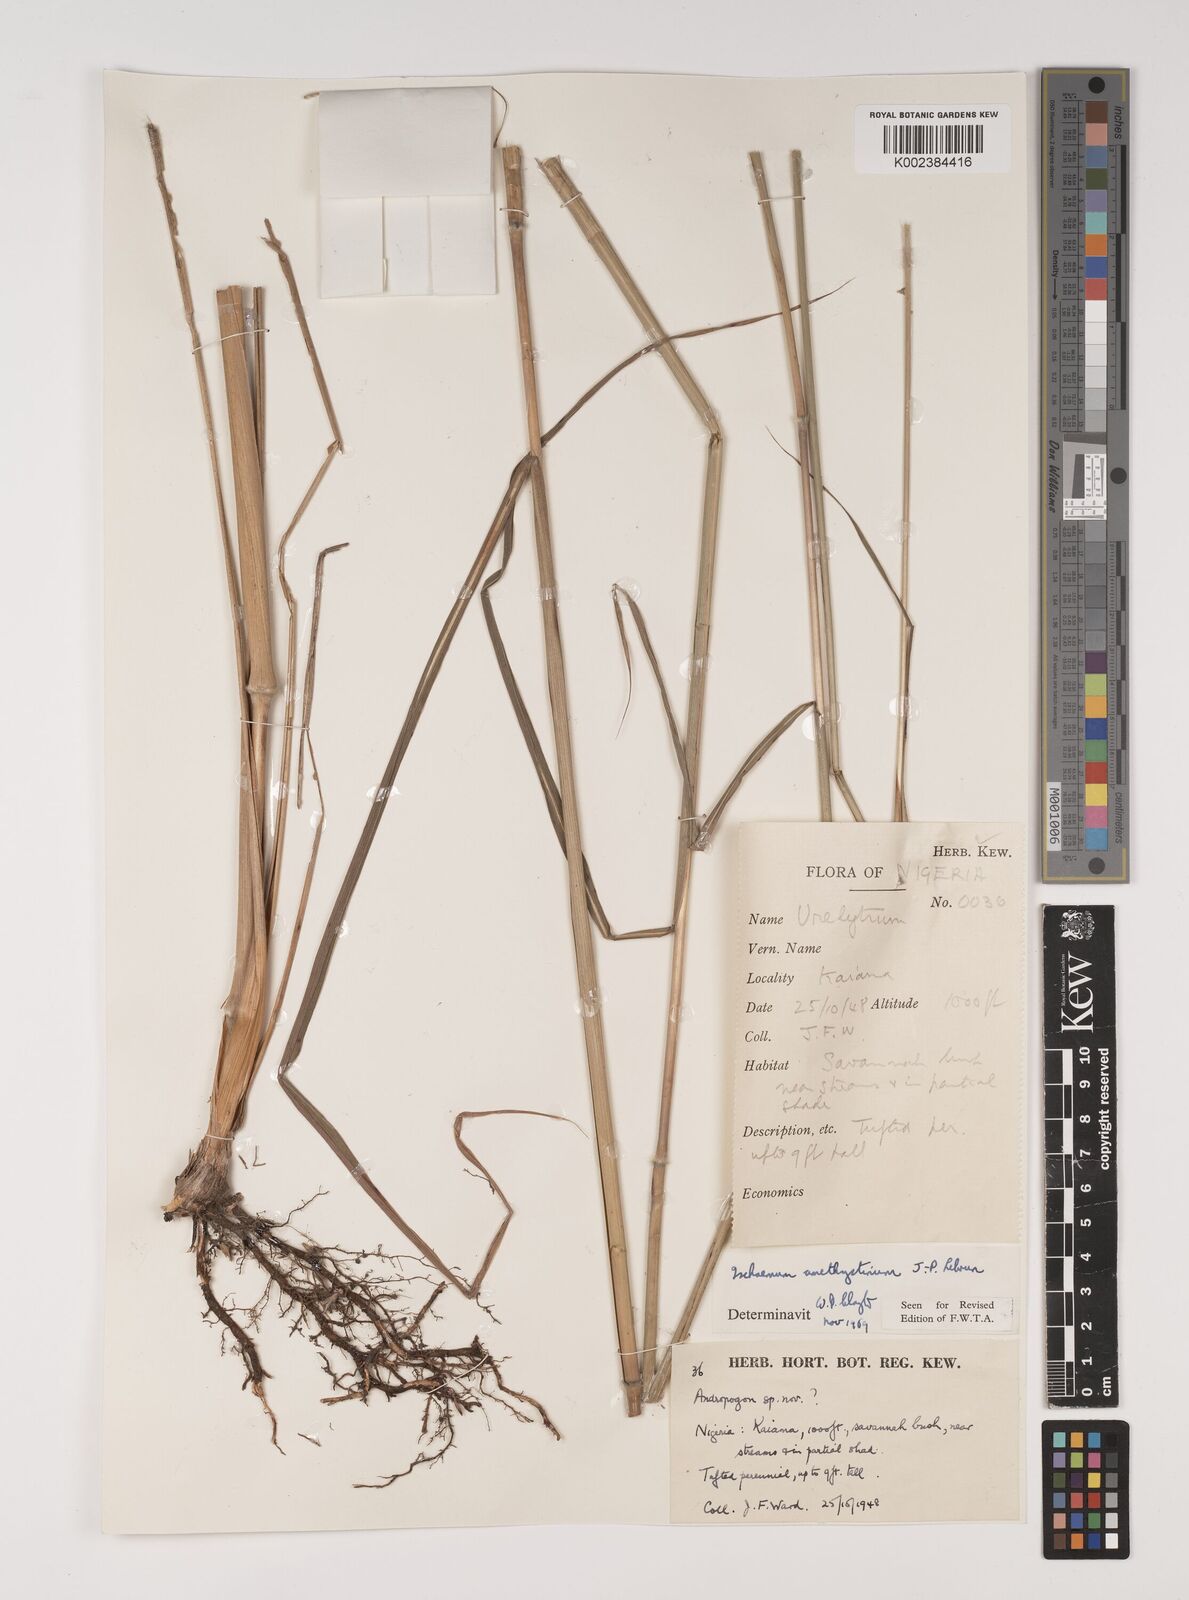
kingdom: Plantae
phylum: Tracheophyta
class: Liliopsida
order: Poales
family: Poaceae
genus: Ischaemum
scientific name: Ischaemum amethystinum
